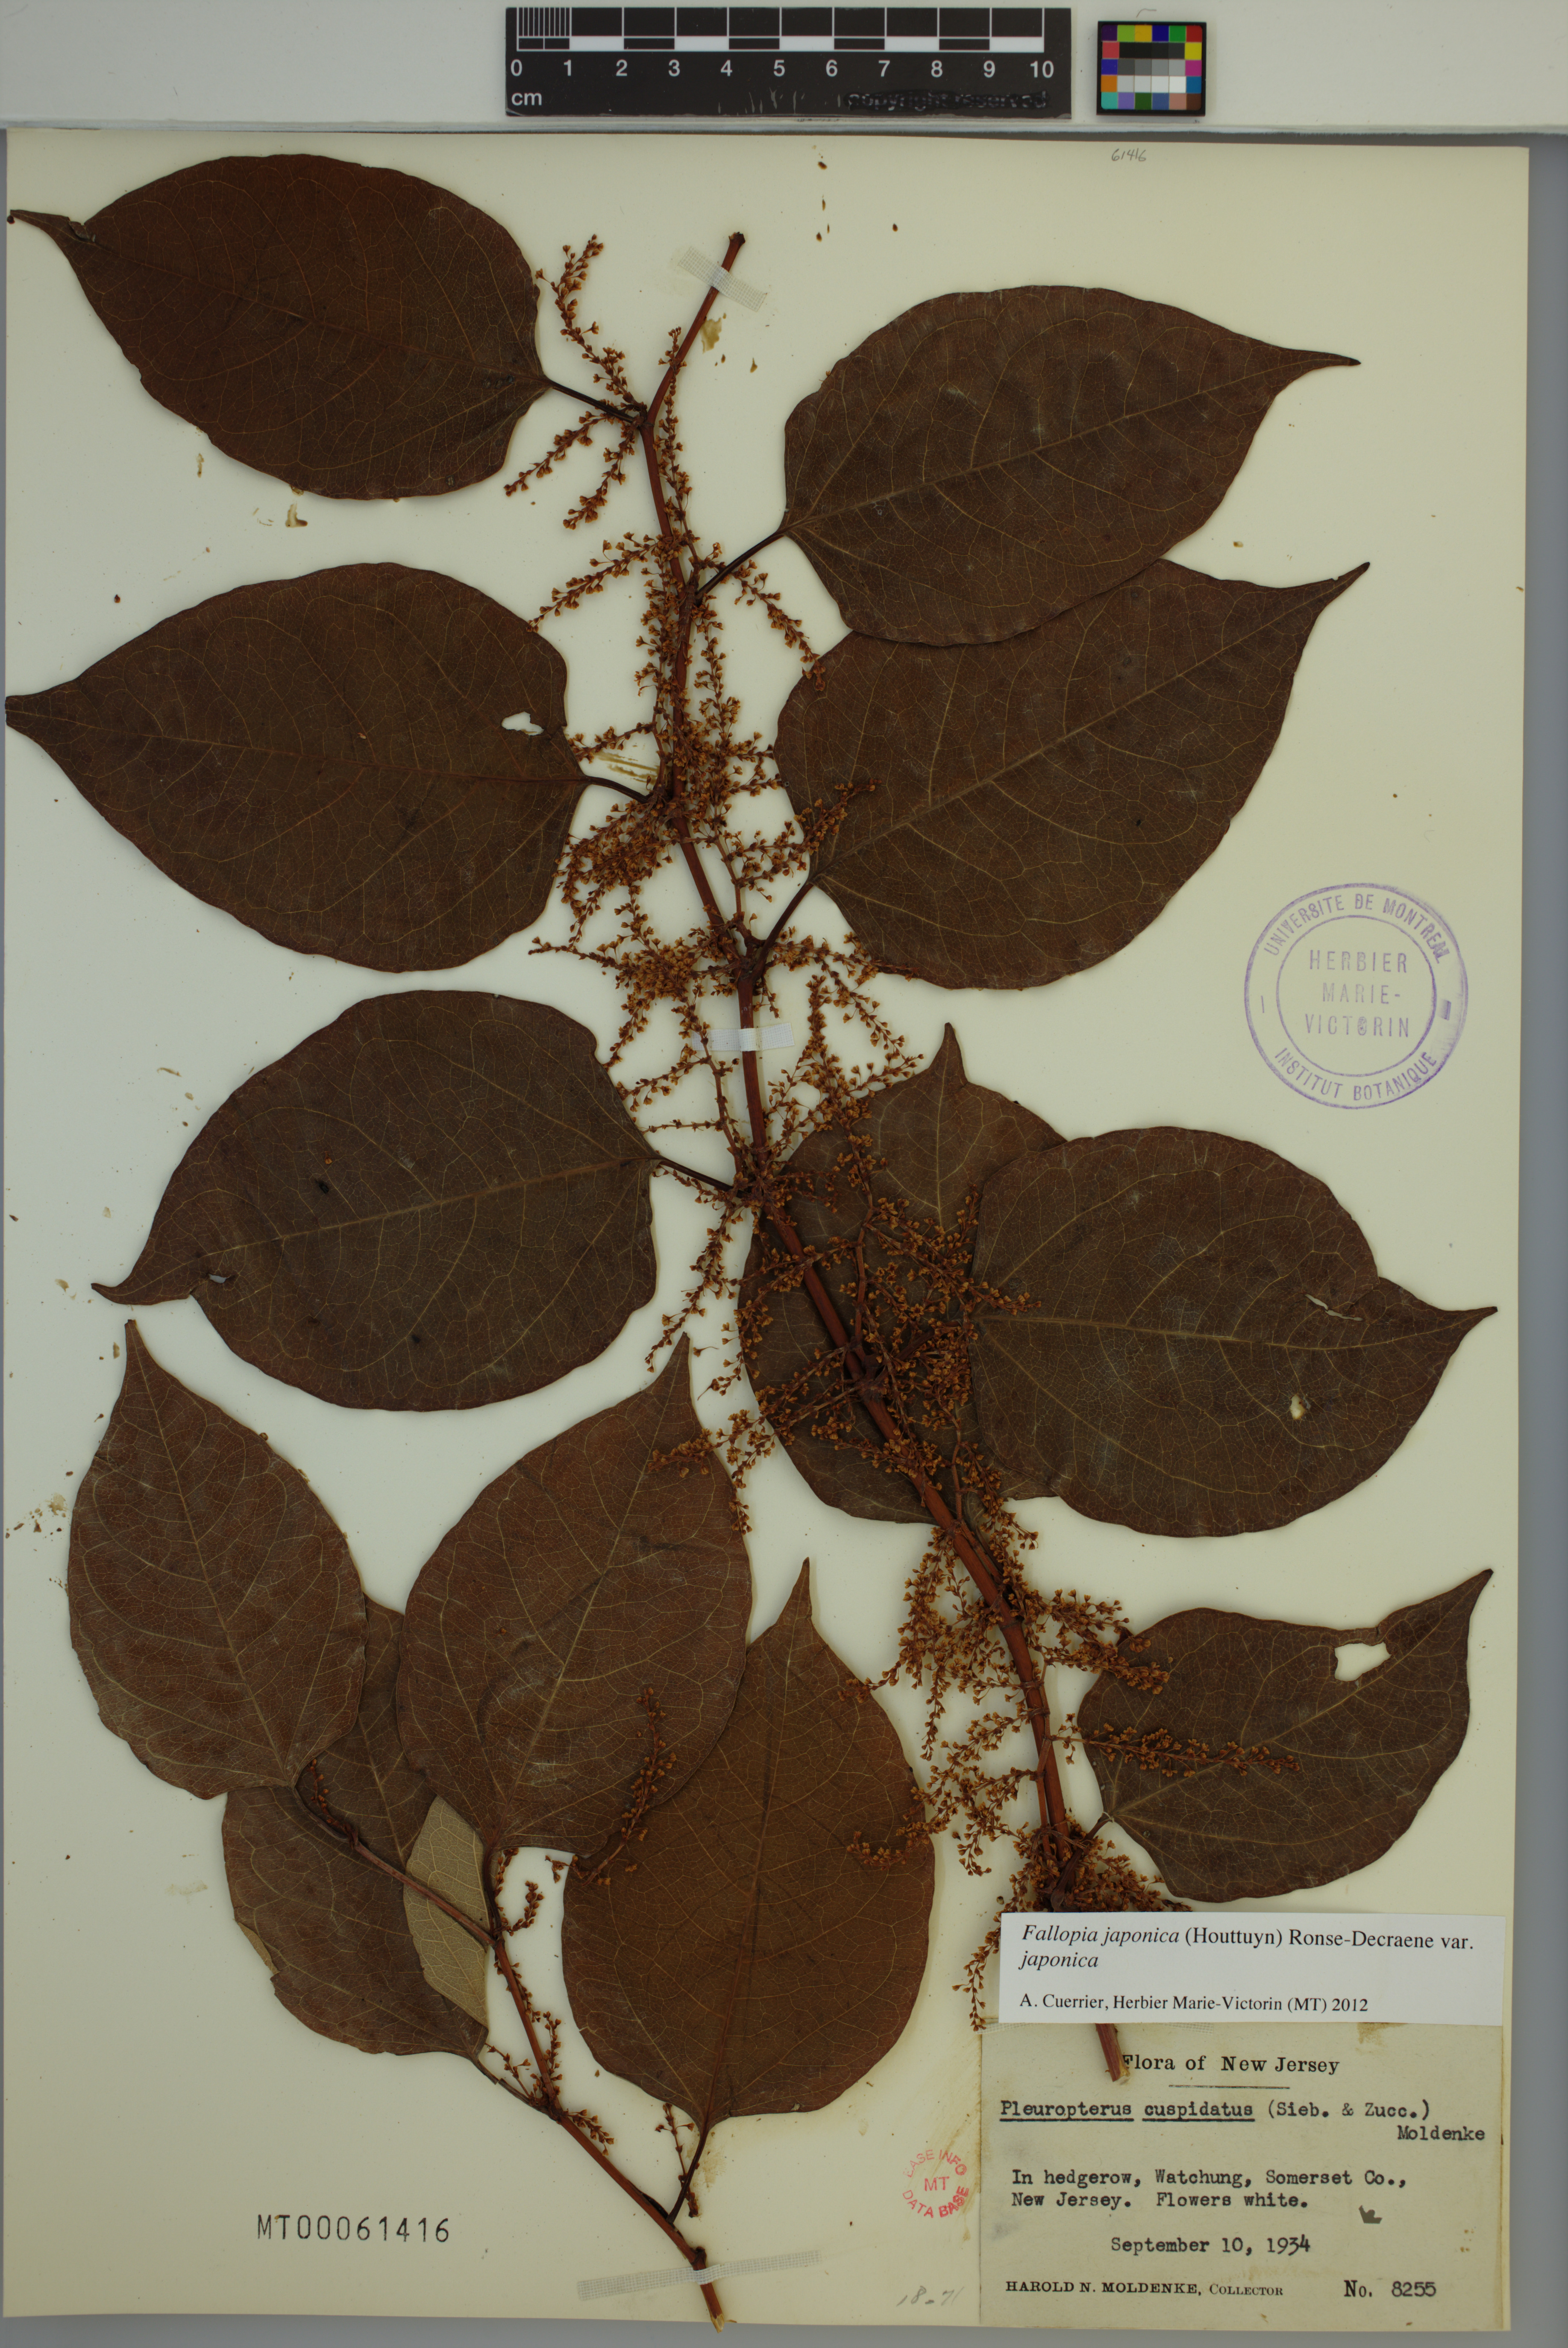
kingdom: Plantae
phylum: Tracheophyta
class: Magnoliopsida
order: Caryophyllales
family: Polygonaceae
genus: Reynoutria
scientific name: Reynoutria japonica
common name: Japanese knotweed
